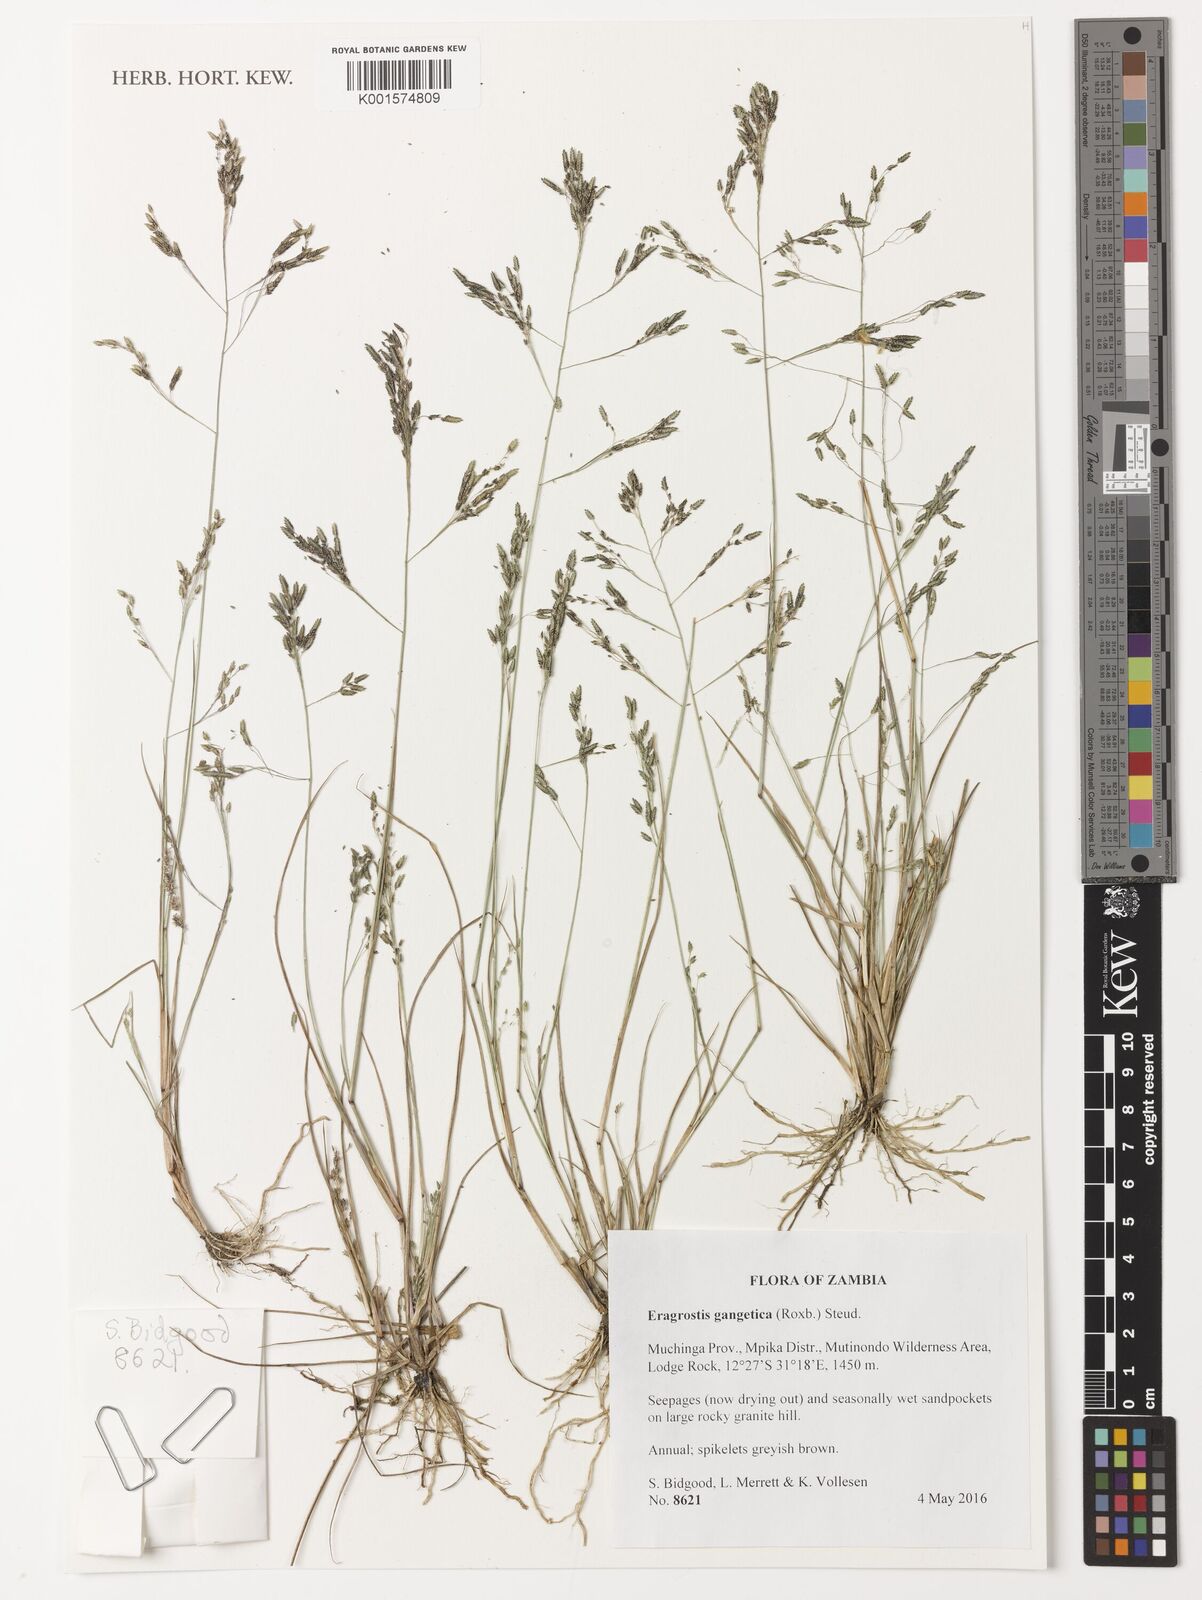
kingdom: Plantae
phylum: Tracheophyta
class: Liliopsida
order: Poales
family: Poaceae
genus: Eragrostis
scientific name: Eragrostis gangetica
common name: Slimflower lovegrass
